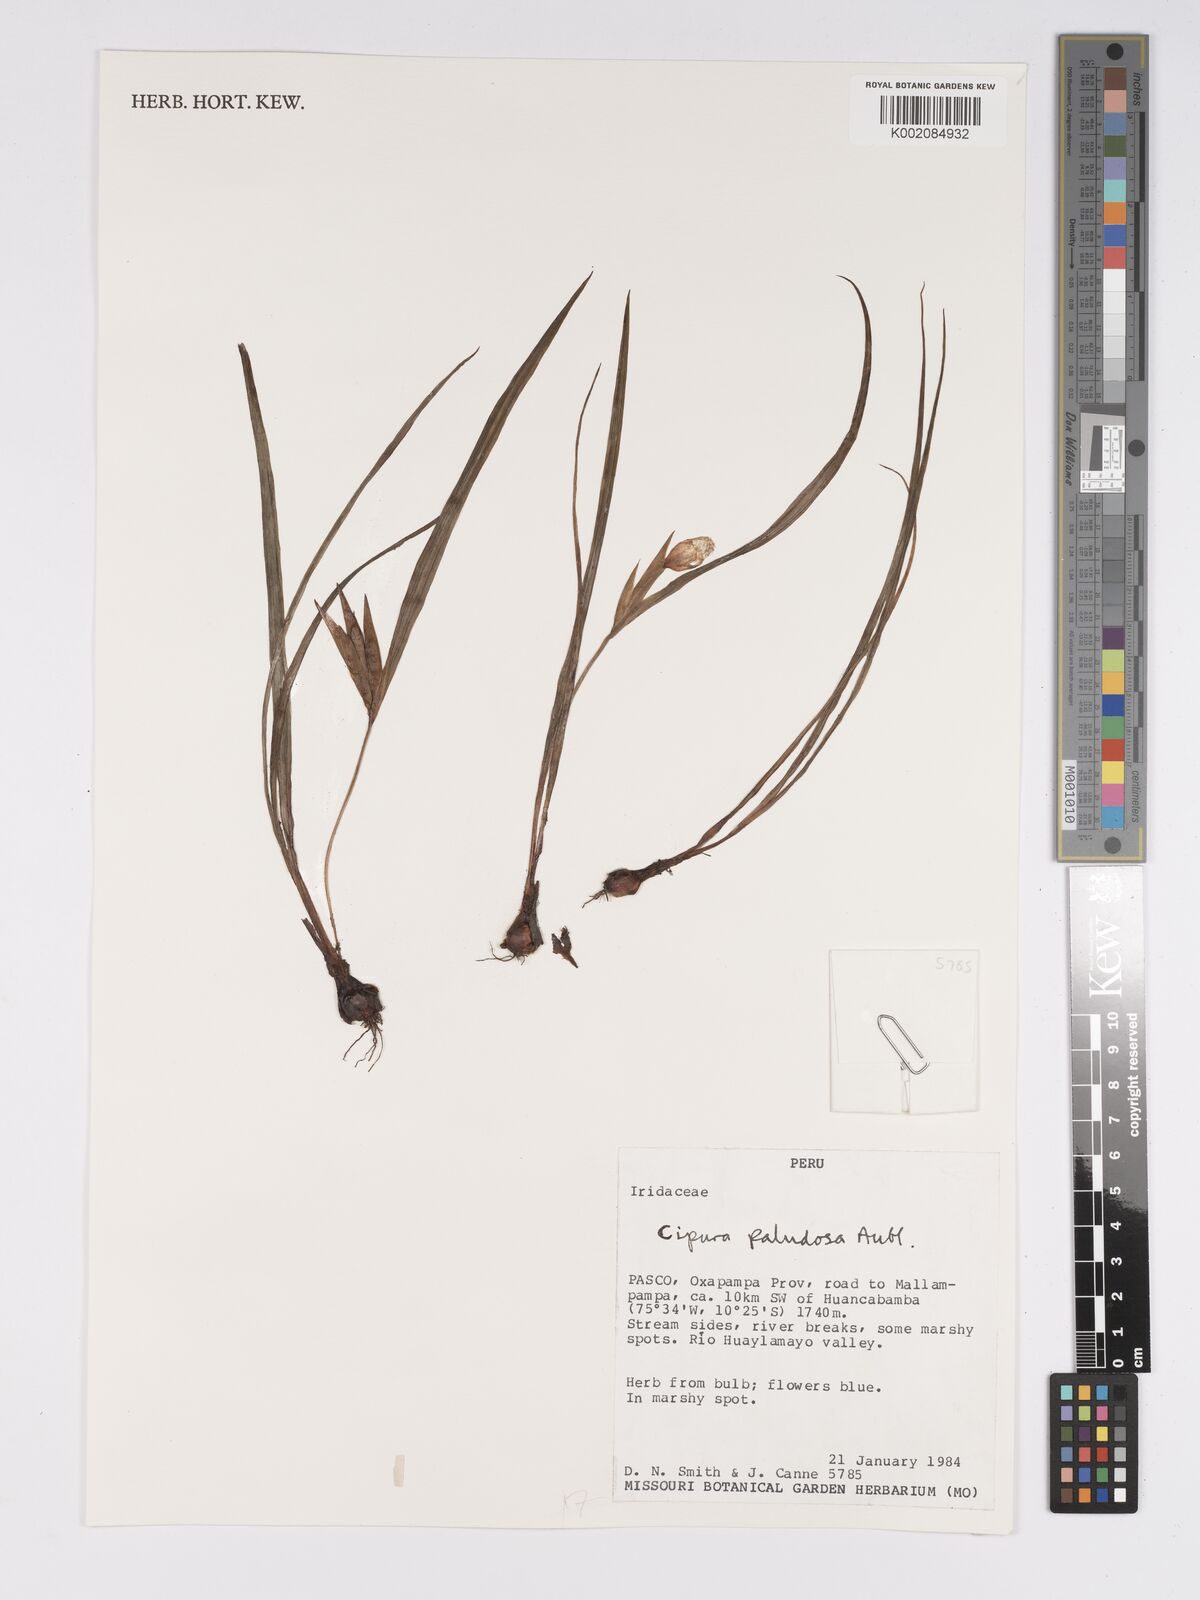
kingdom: Plantae
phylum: Tracheophyta
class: Liliopsida
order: Asparagales
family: Iridaceae
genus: Cipura
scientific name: Cipura paludosa
